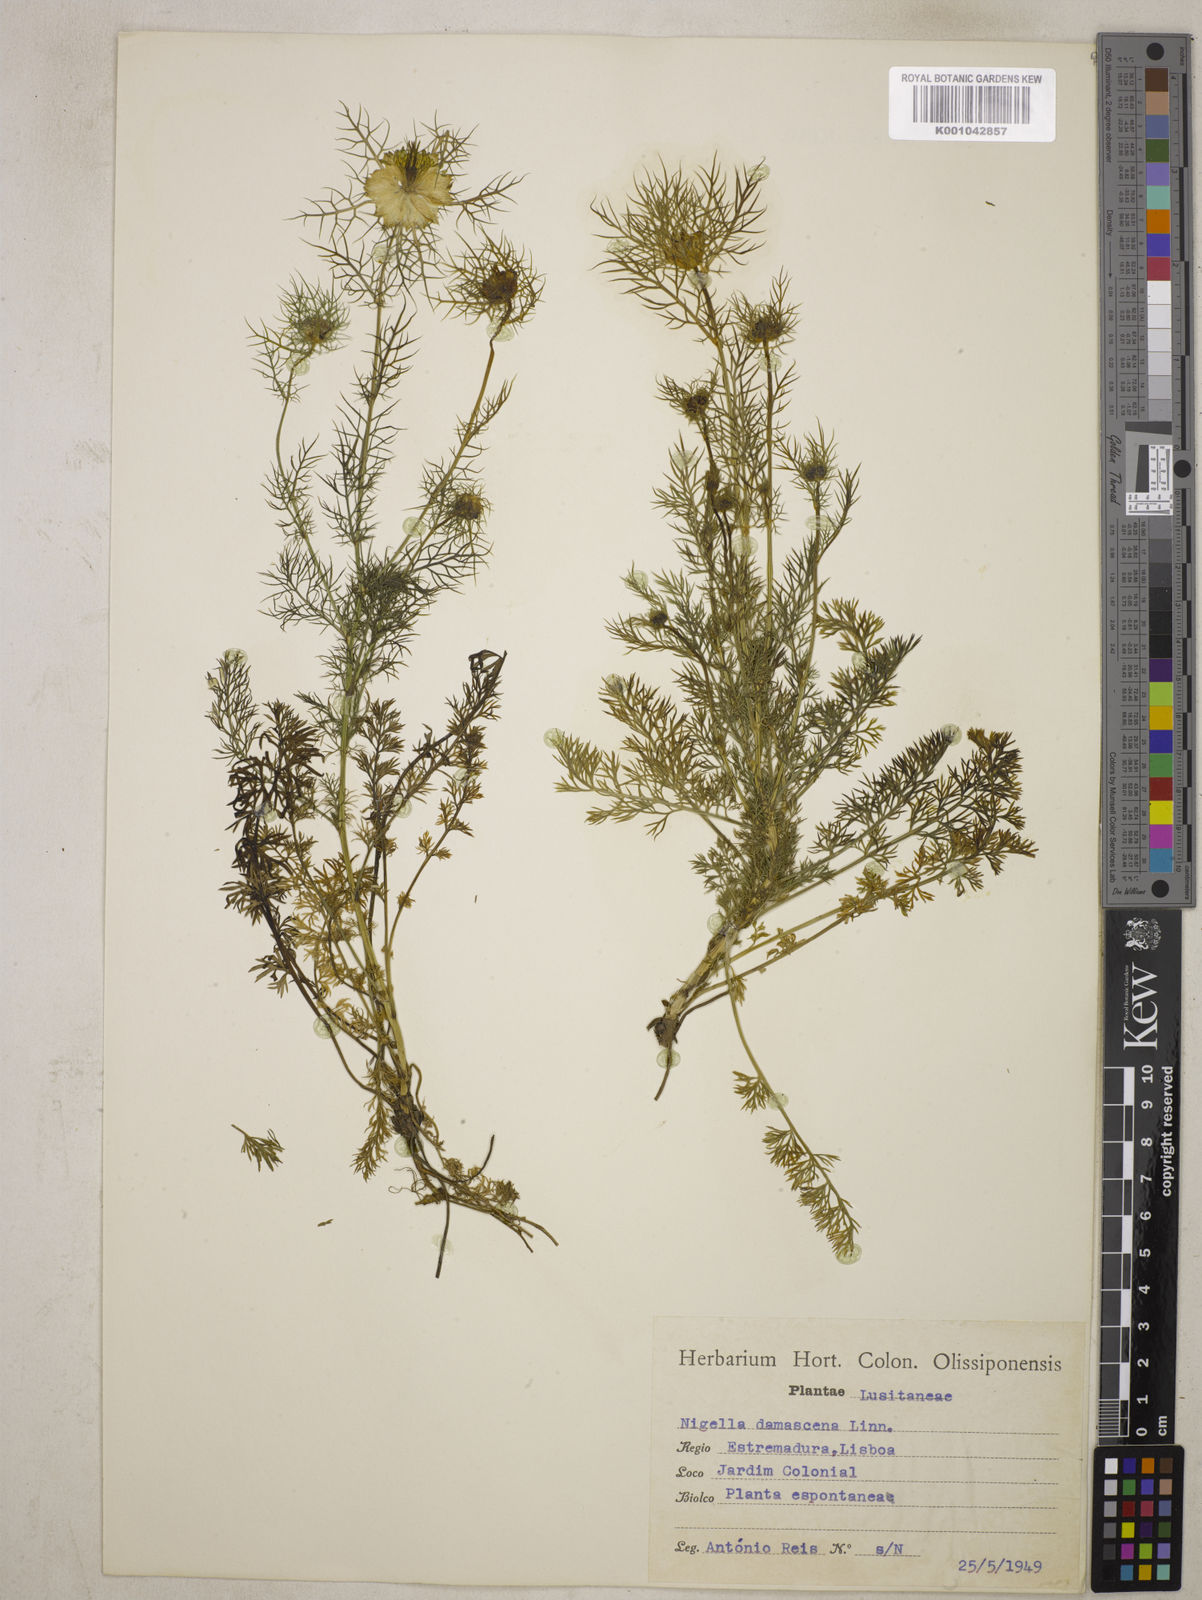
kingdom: Plantae
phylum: Tracheophyta
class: Magnoliopsida
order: Ranunculales
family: Ranunculaceae
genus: Nigella
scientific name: Nigella damascena
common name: Love-in-a-mist
